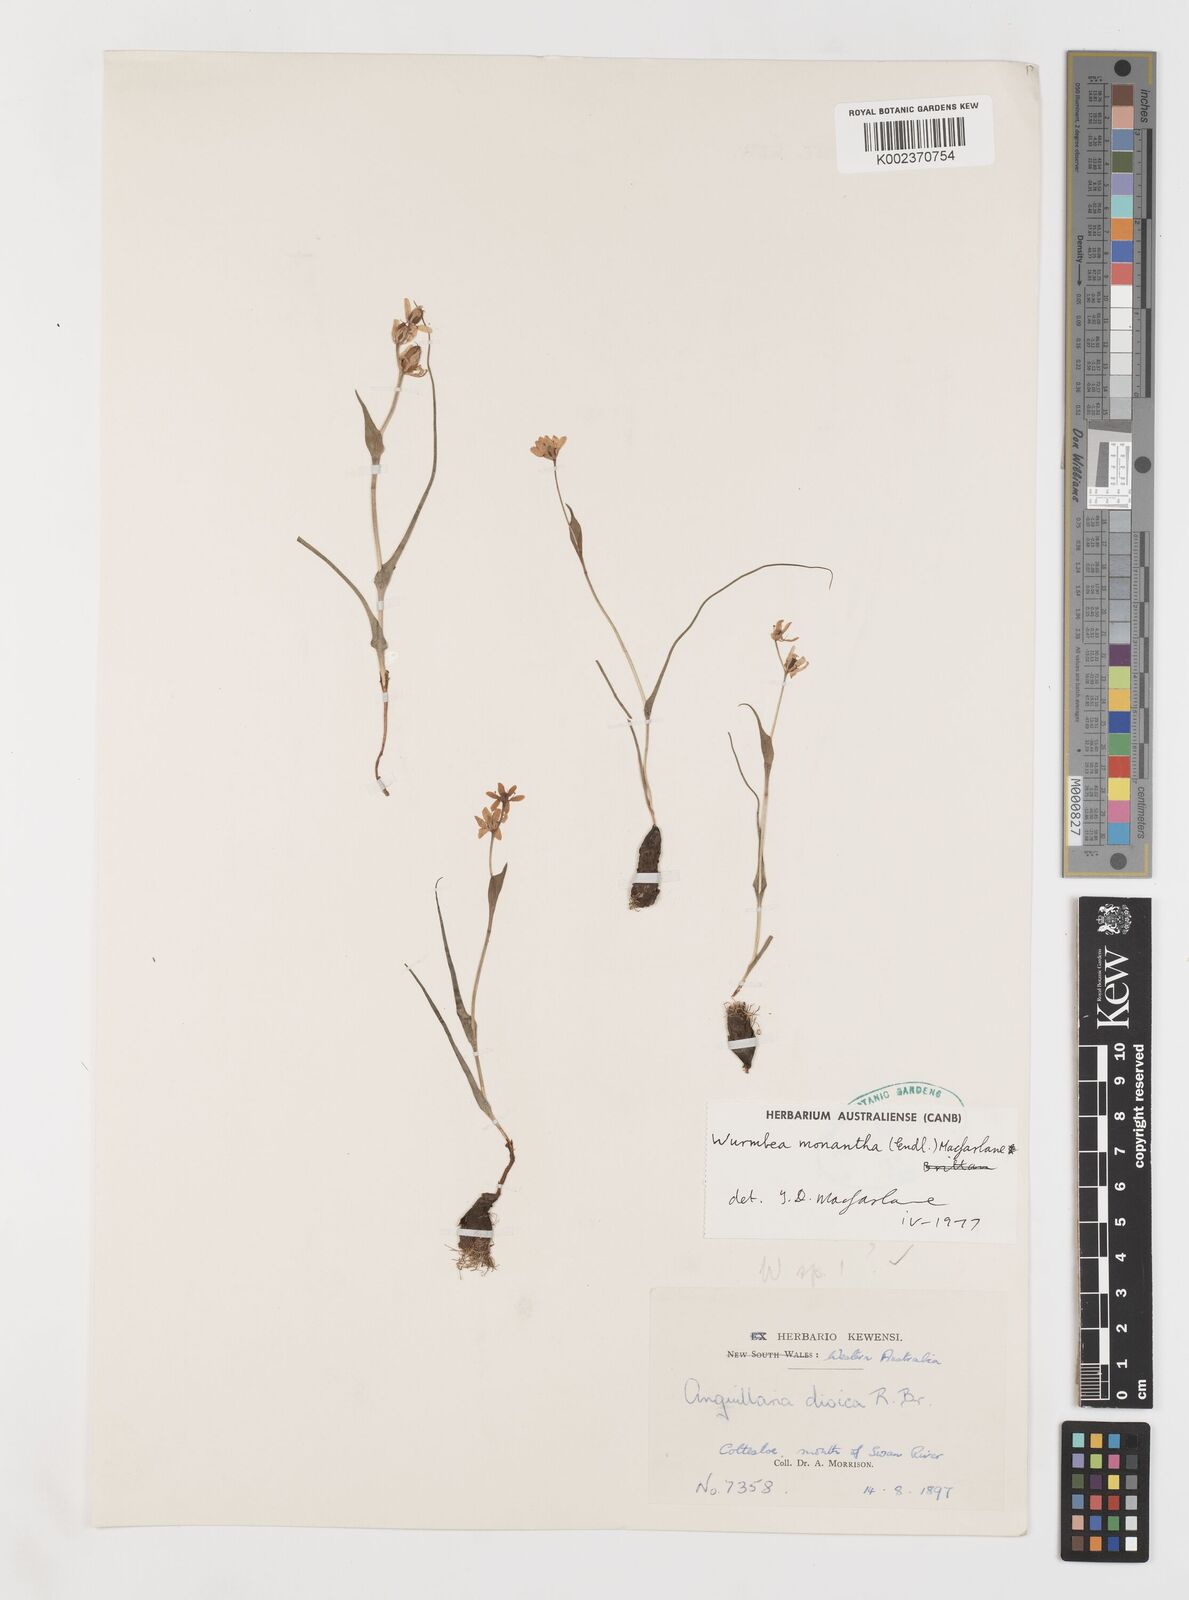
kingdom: Plantae
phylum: Tracheophyta
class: Liliopsida
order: Liliales
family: Colchicaceae
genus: Wurmbea
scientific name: Wurmbea monantha
